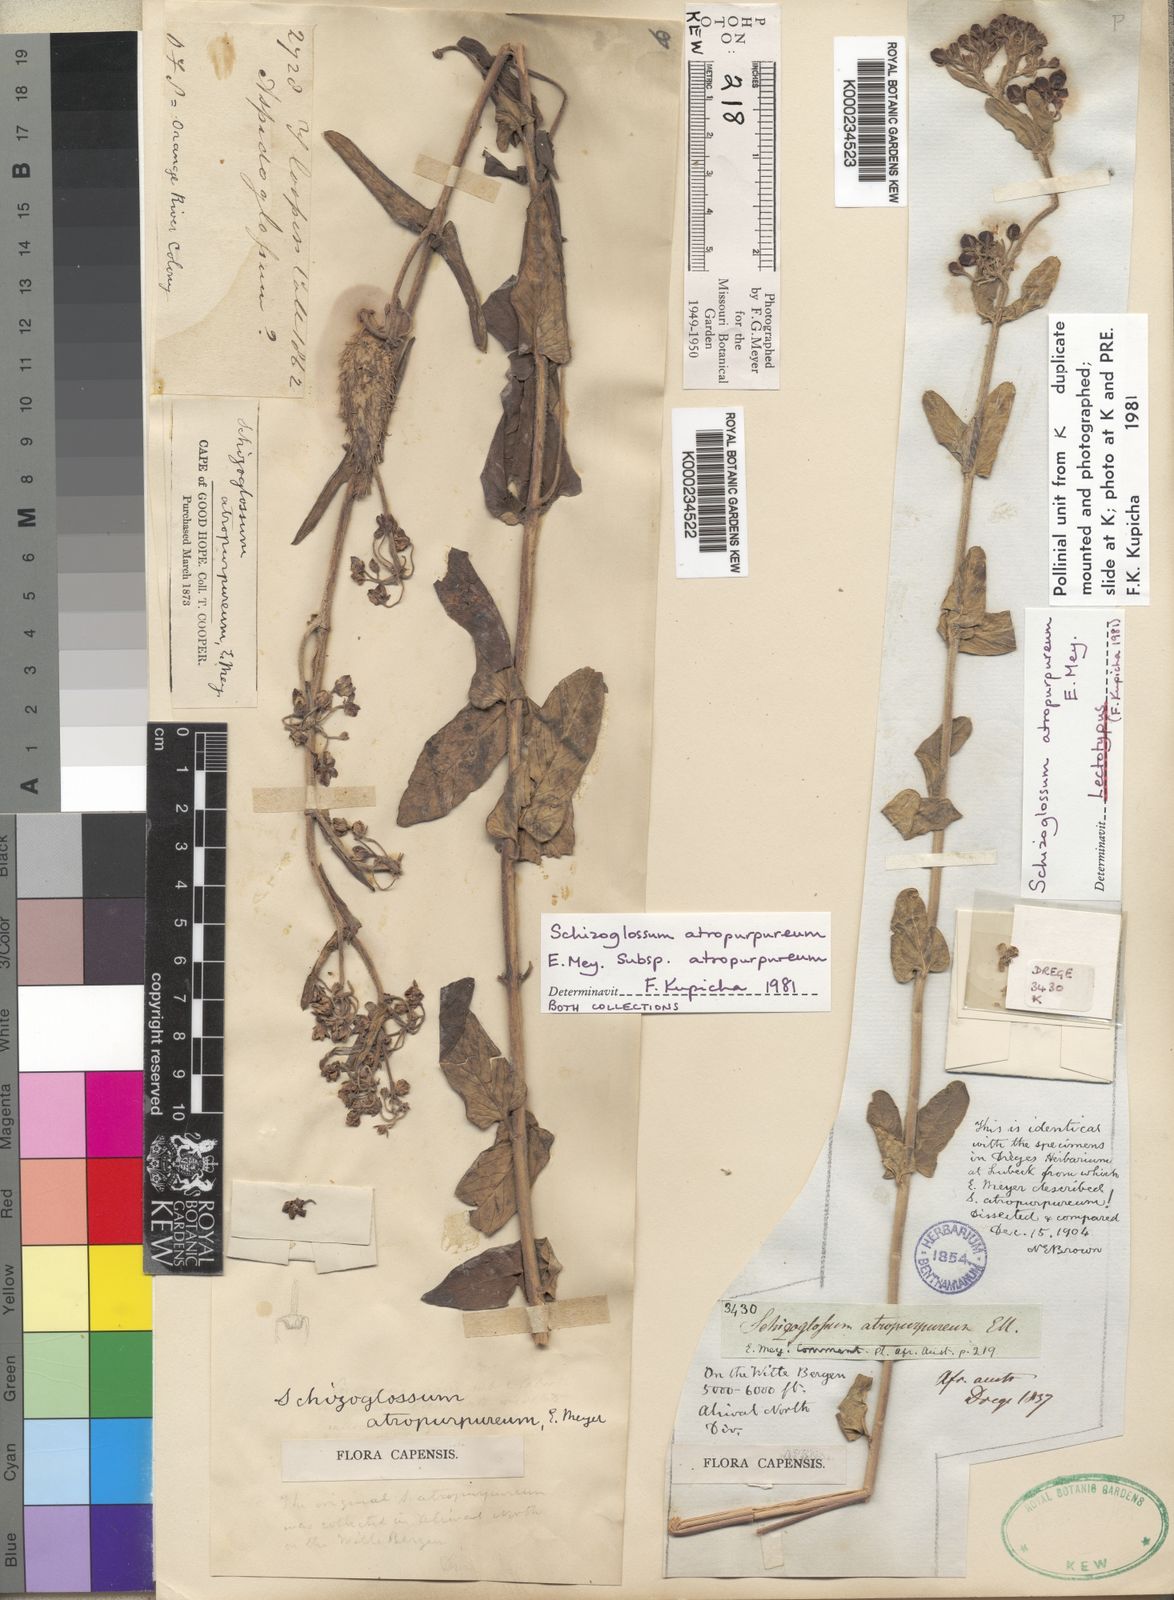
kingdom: Plantae
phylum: Tracheophyta
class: Magnoliopsida
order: Gentianales
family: Apocynaceae
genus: Schizoglossum
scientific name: Schizoglossum atropurpureum
